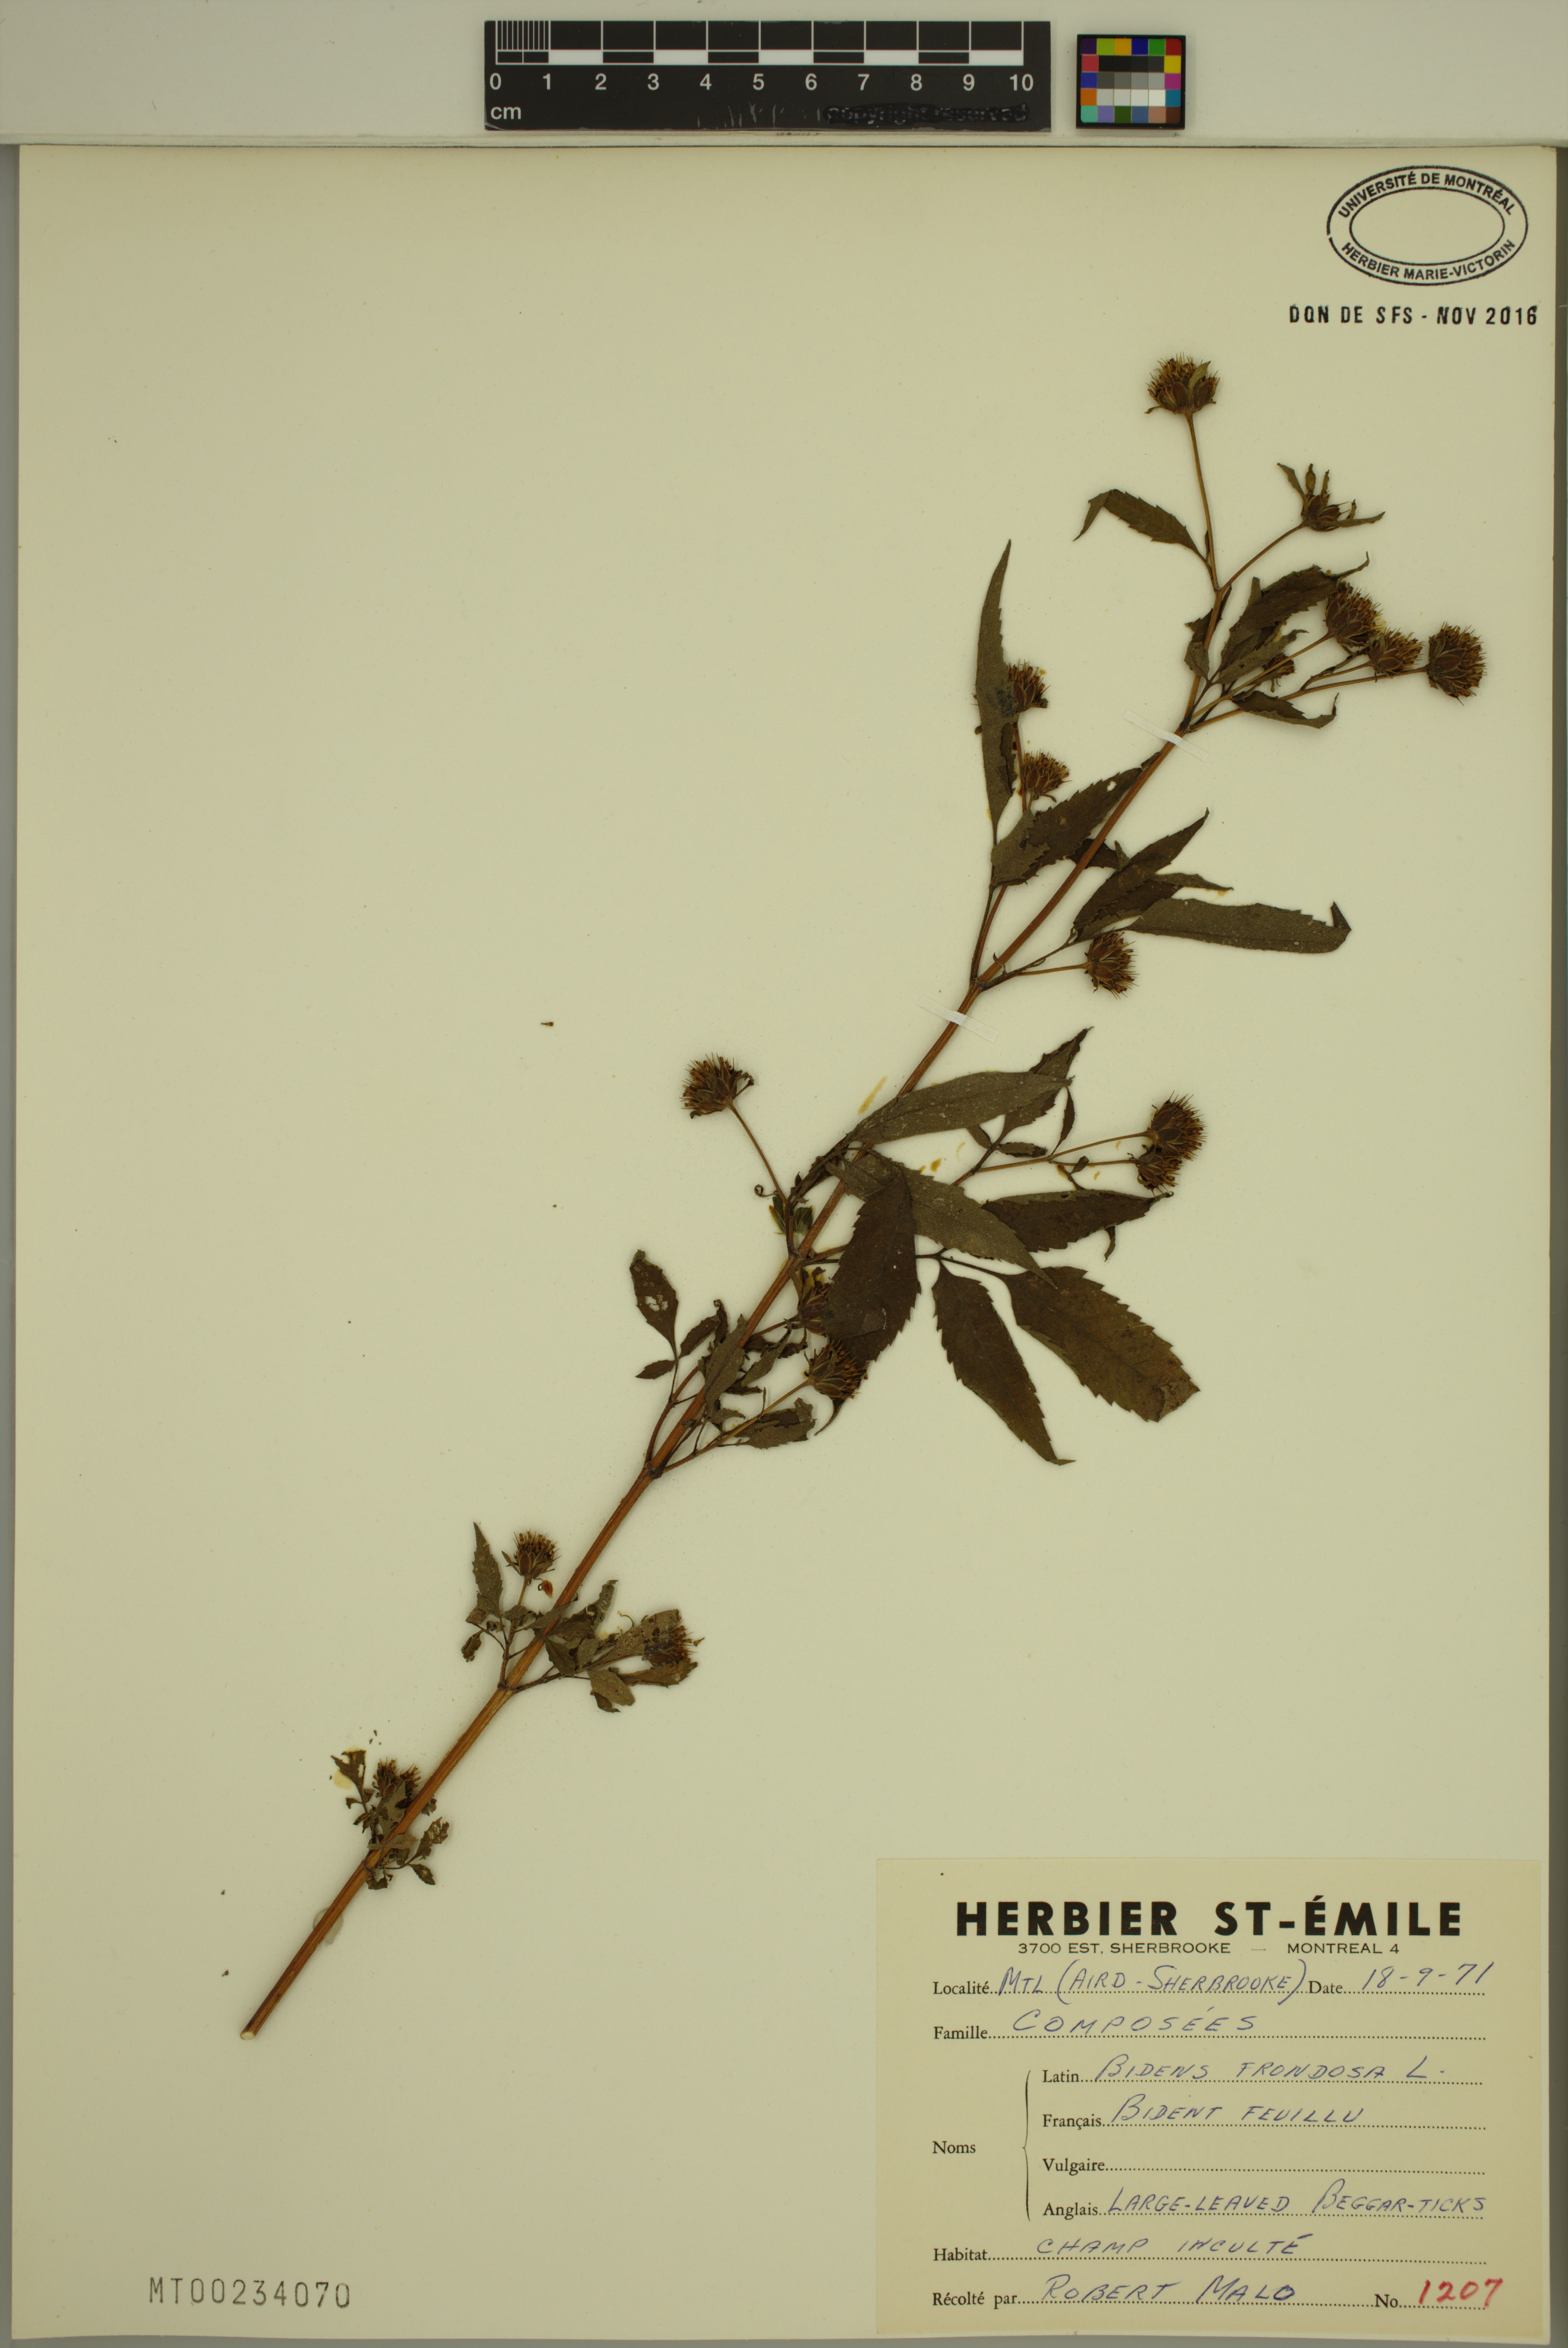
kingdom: Plantae
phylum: Tracheophyta
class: Magnoliopsida
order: Asterales
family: Asteraceae
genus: Bidens
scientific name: Bidens frondosa
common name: Beggarticks
